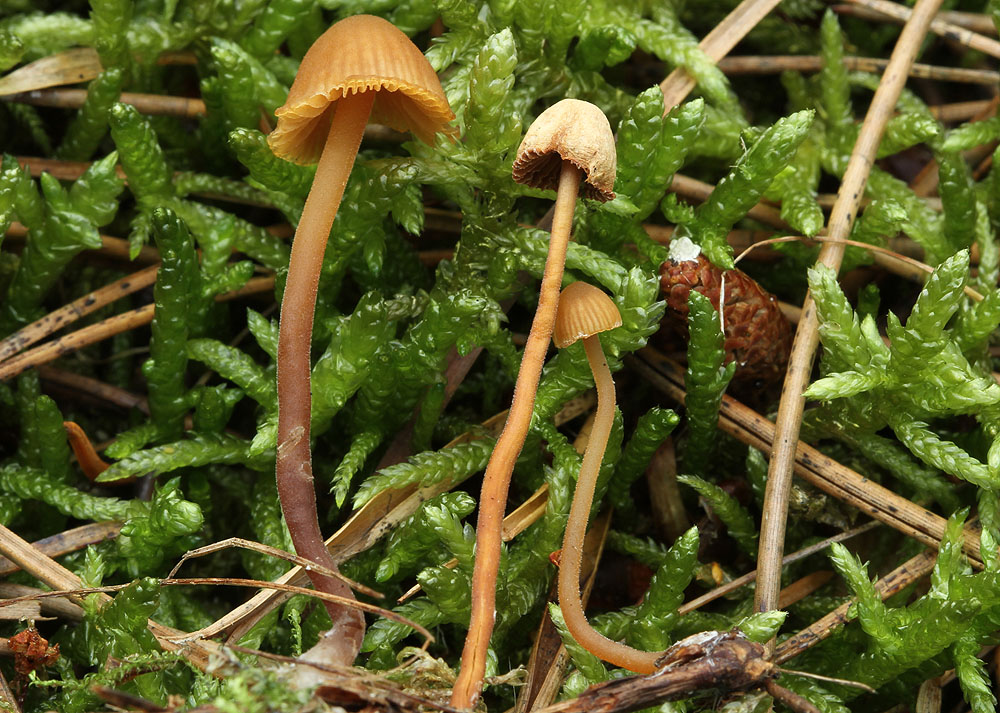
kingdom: Fungi
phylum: Basidiomycota
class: Agaricomycetes
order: Agaricales
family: Hymenogastraceae
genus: Galerina
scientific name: Galerina atkinsoniana
